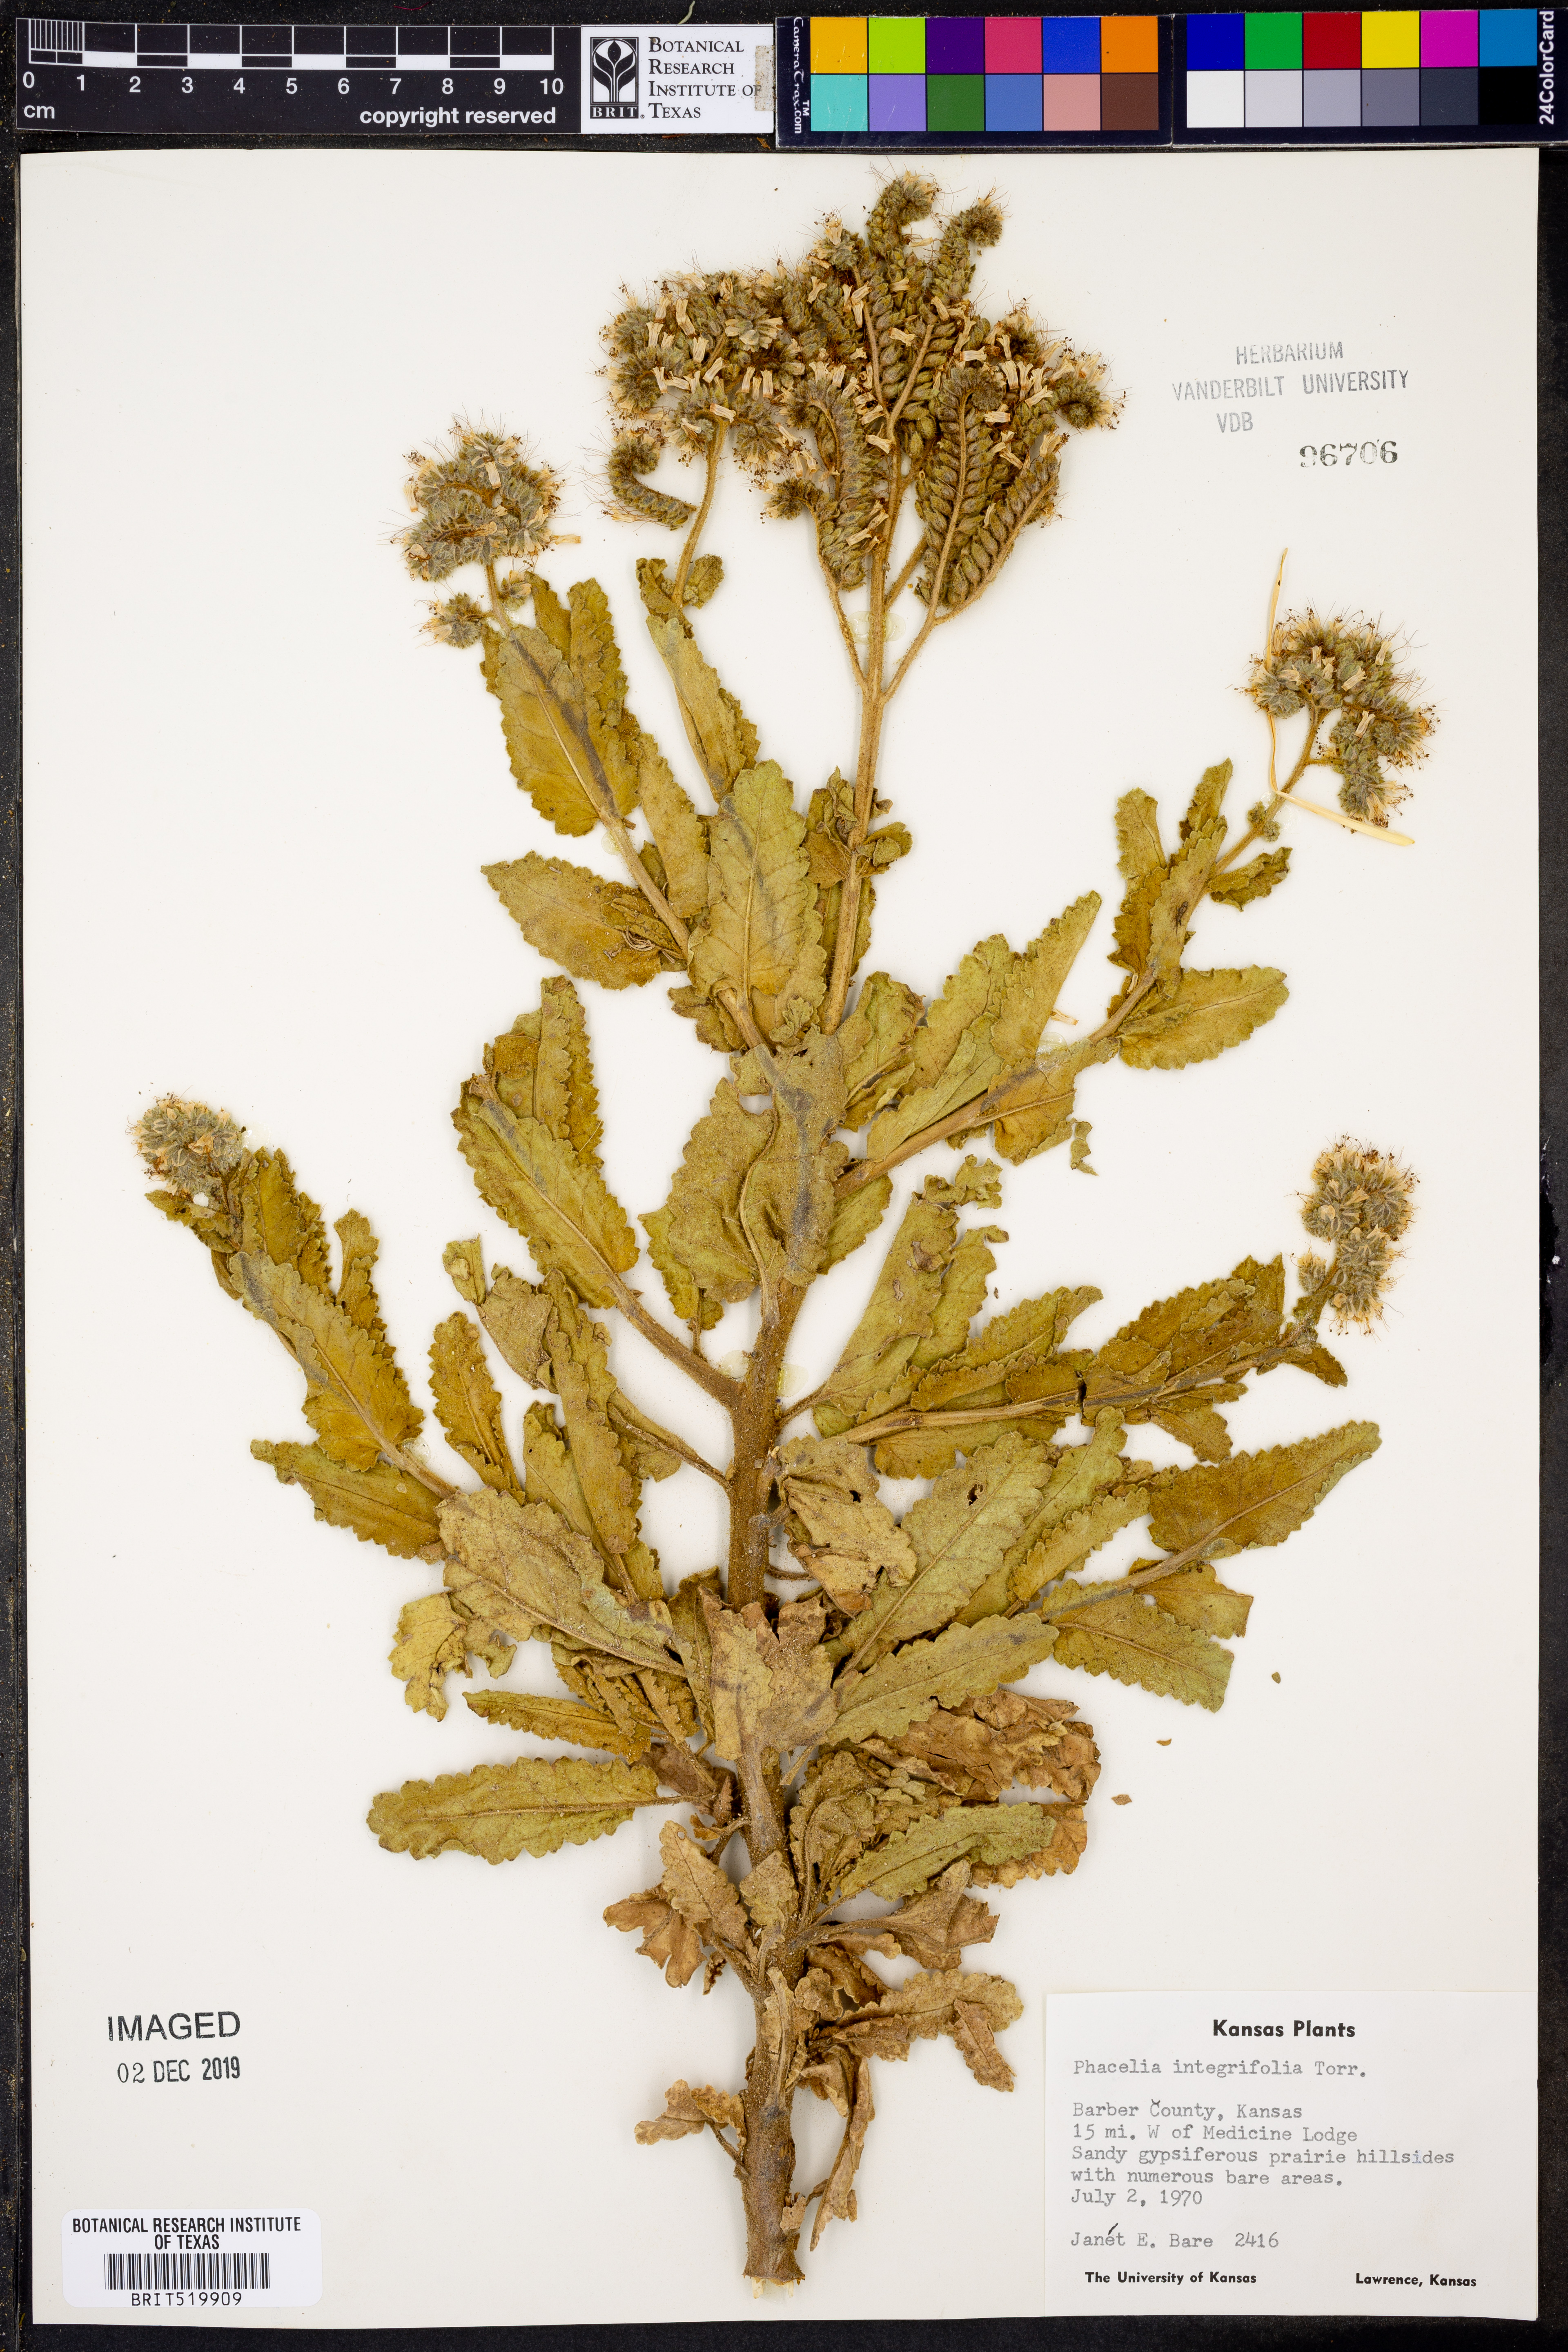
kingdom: Plantae
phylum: Tracheophyta
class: Magnoliopsida
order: Boraginales
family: Hydrophyllaceae
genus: Phacelia
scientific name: Phacelia integrifolia
